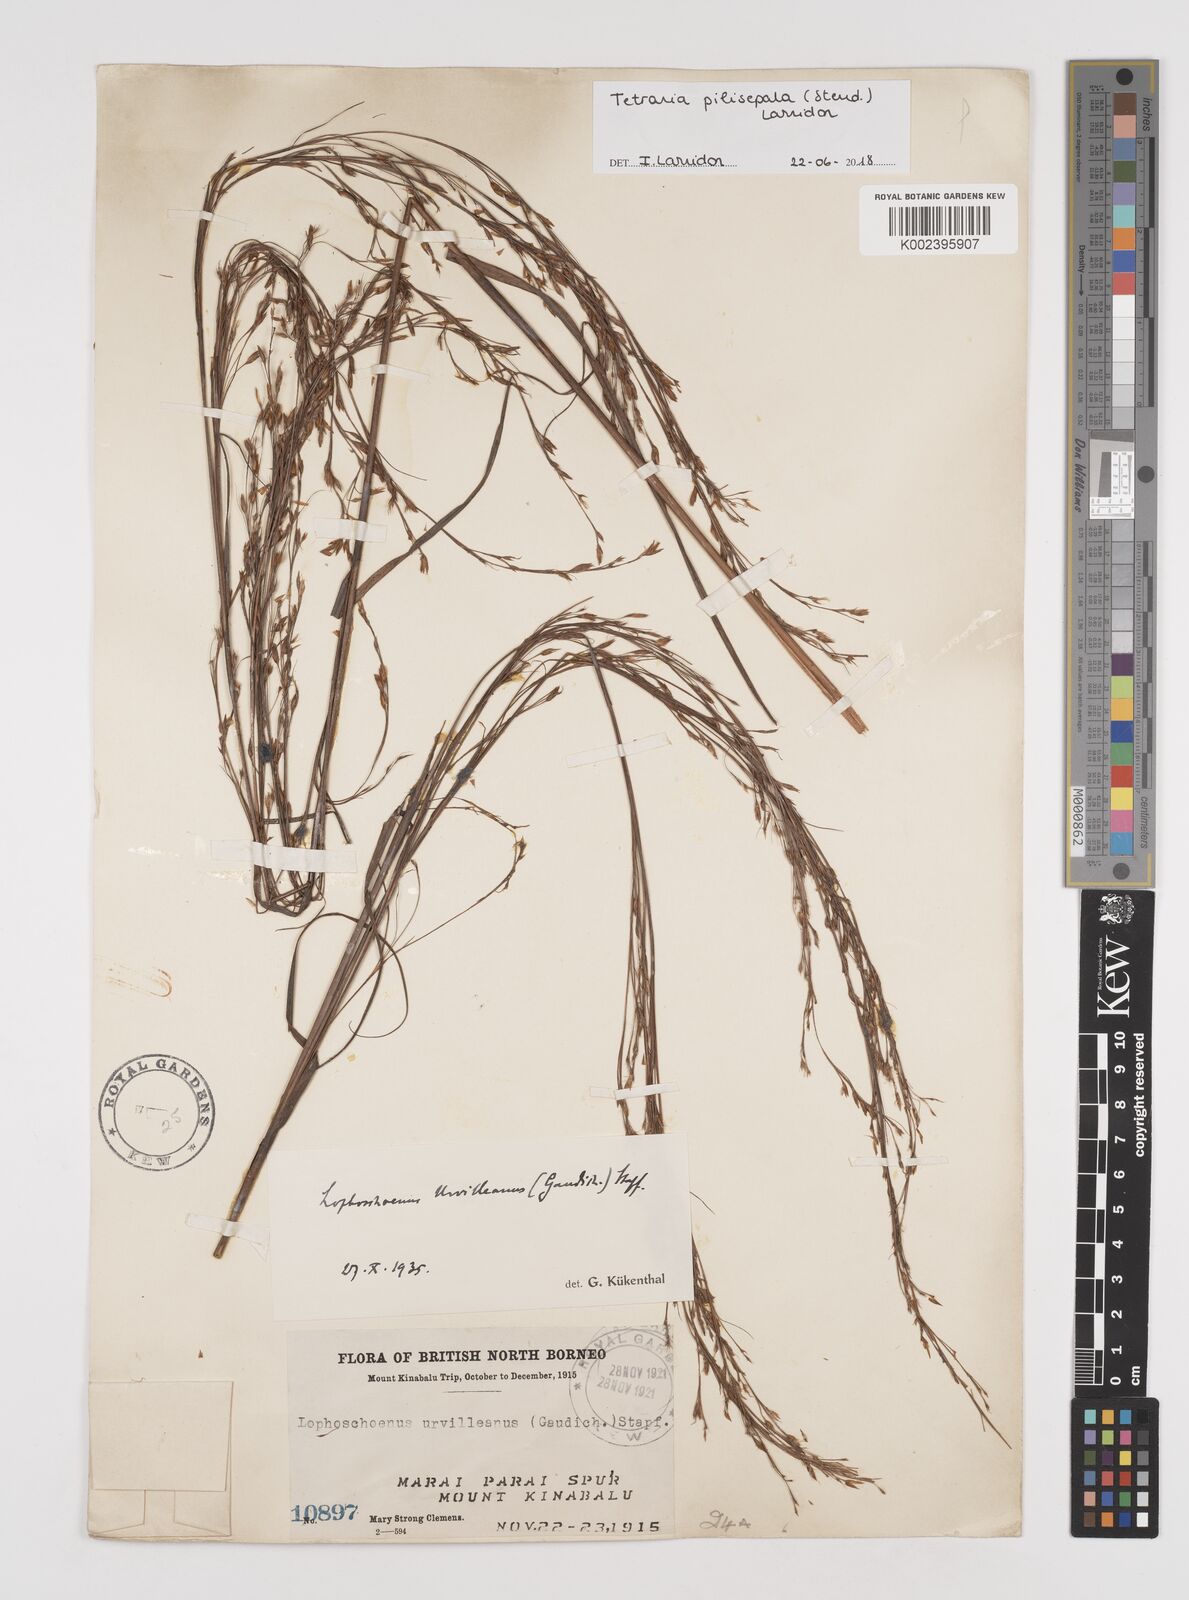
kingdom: Plantae
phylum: Tracheophyta
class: Liliopsida
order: Poales
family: Cyperaceae
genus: Tetraria
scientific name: Tetraria pilisepala
